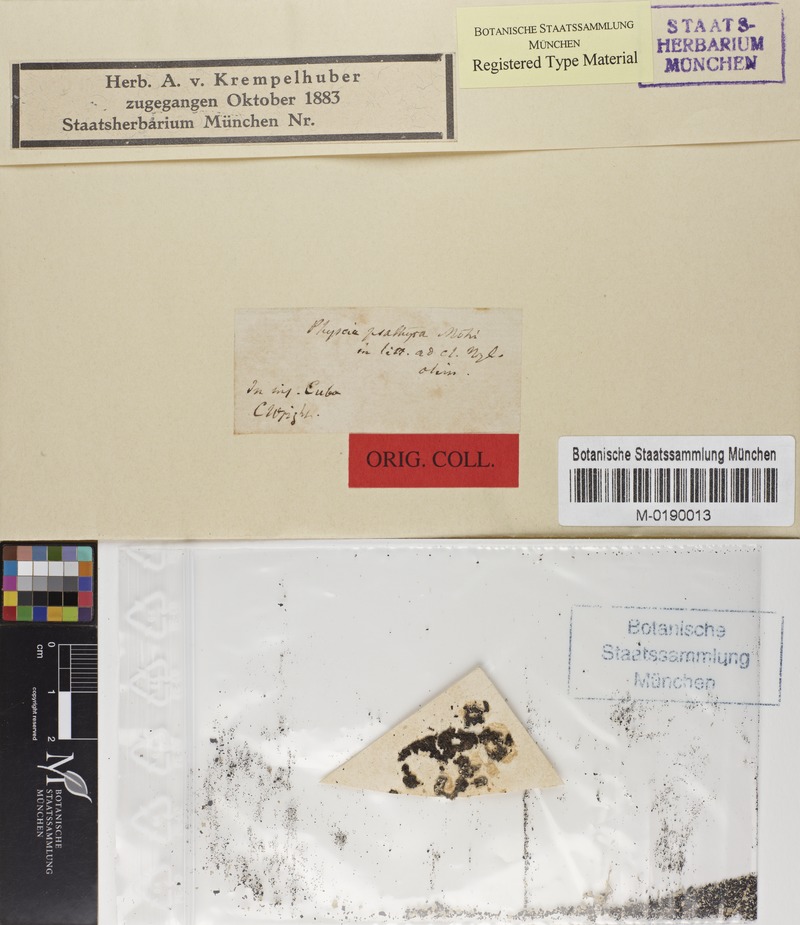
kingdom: Fungi
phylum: Ascomycota
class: Lecanoromycetes
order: Caliciales
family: Physciaceae
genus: Physcia
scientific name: Physcia integrata
